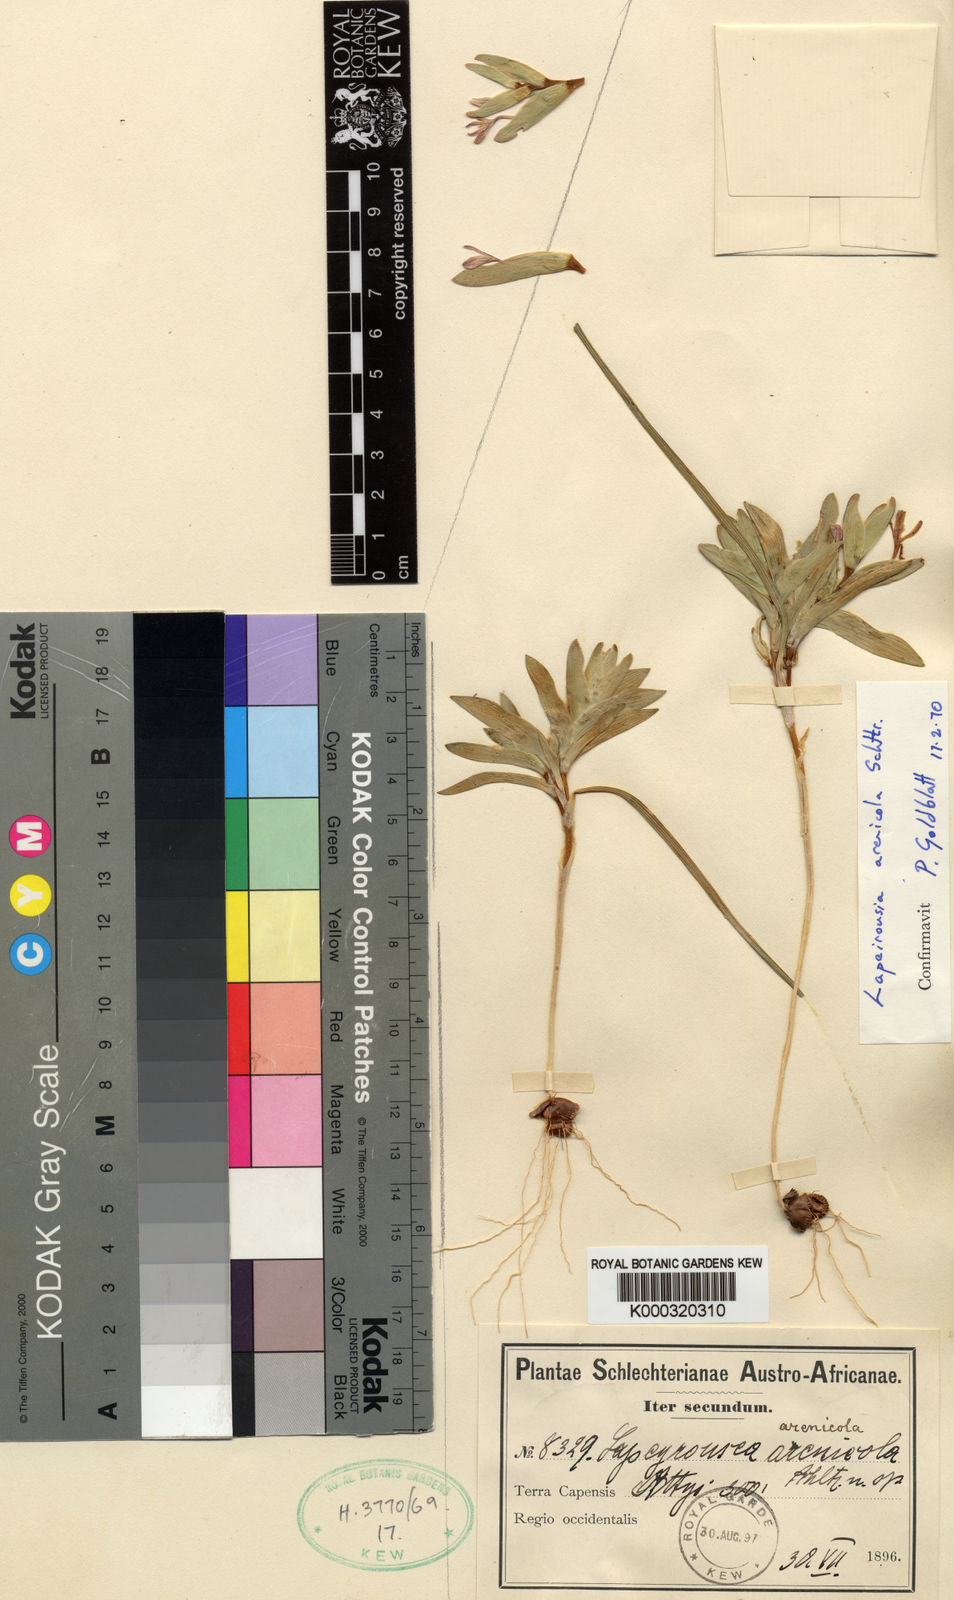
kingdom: Plantae
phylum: Tracheophyta
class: Liliopsida
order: Asparagales
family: Iridaceae
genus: Lapeirousia
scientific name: Lapeirousia arenicola
